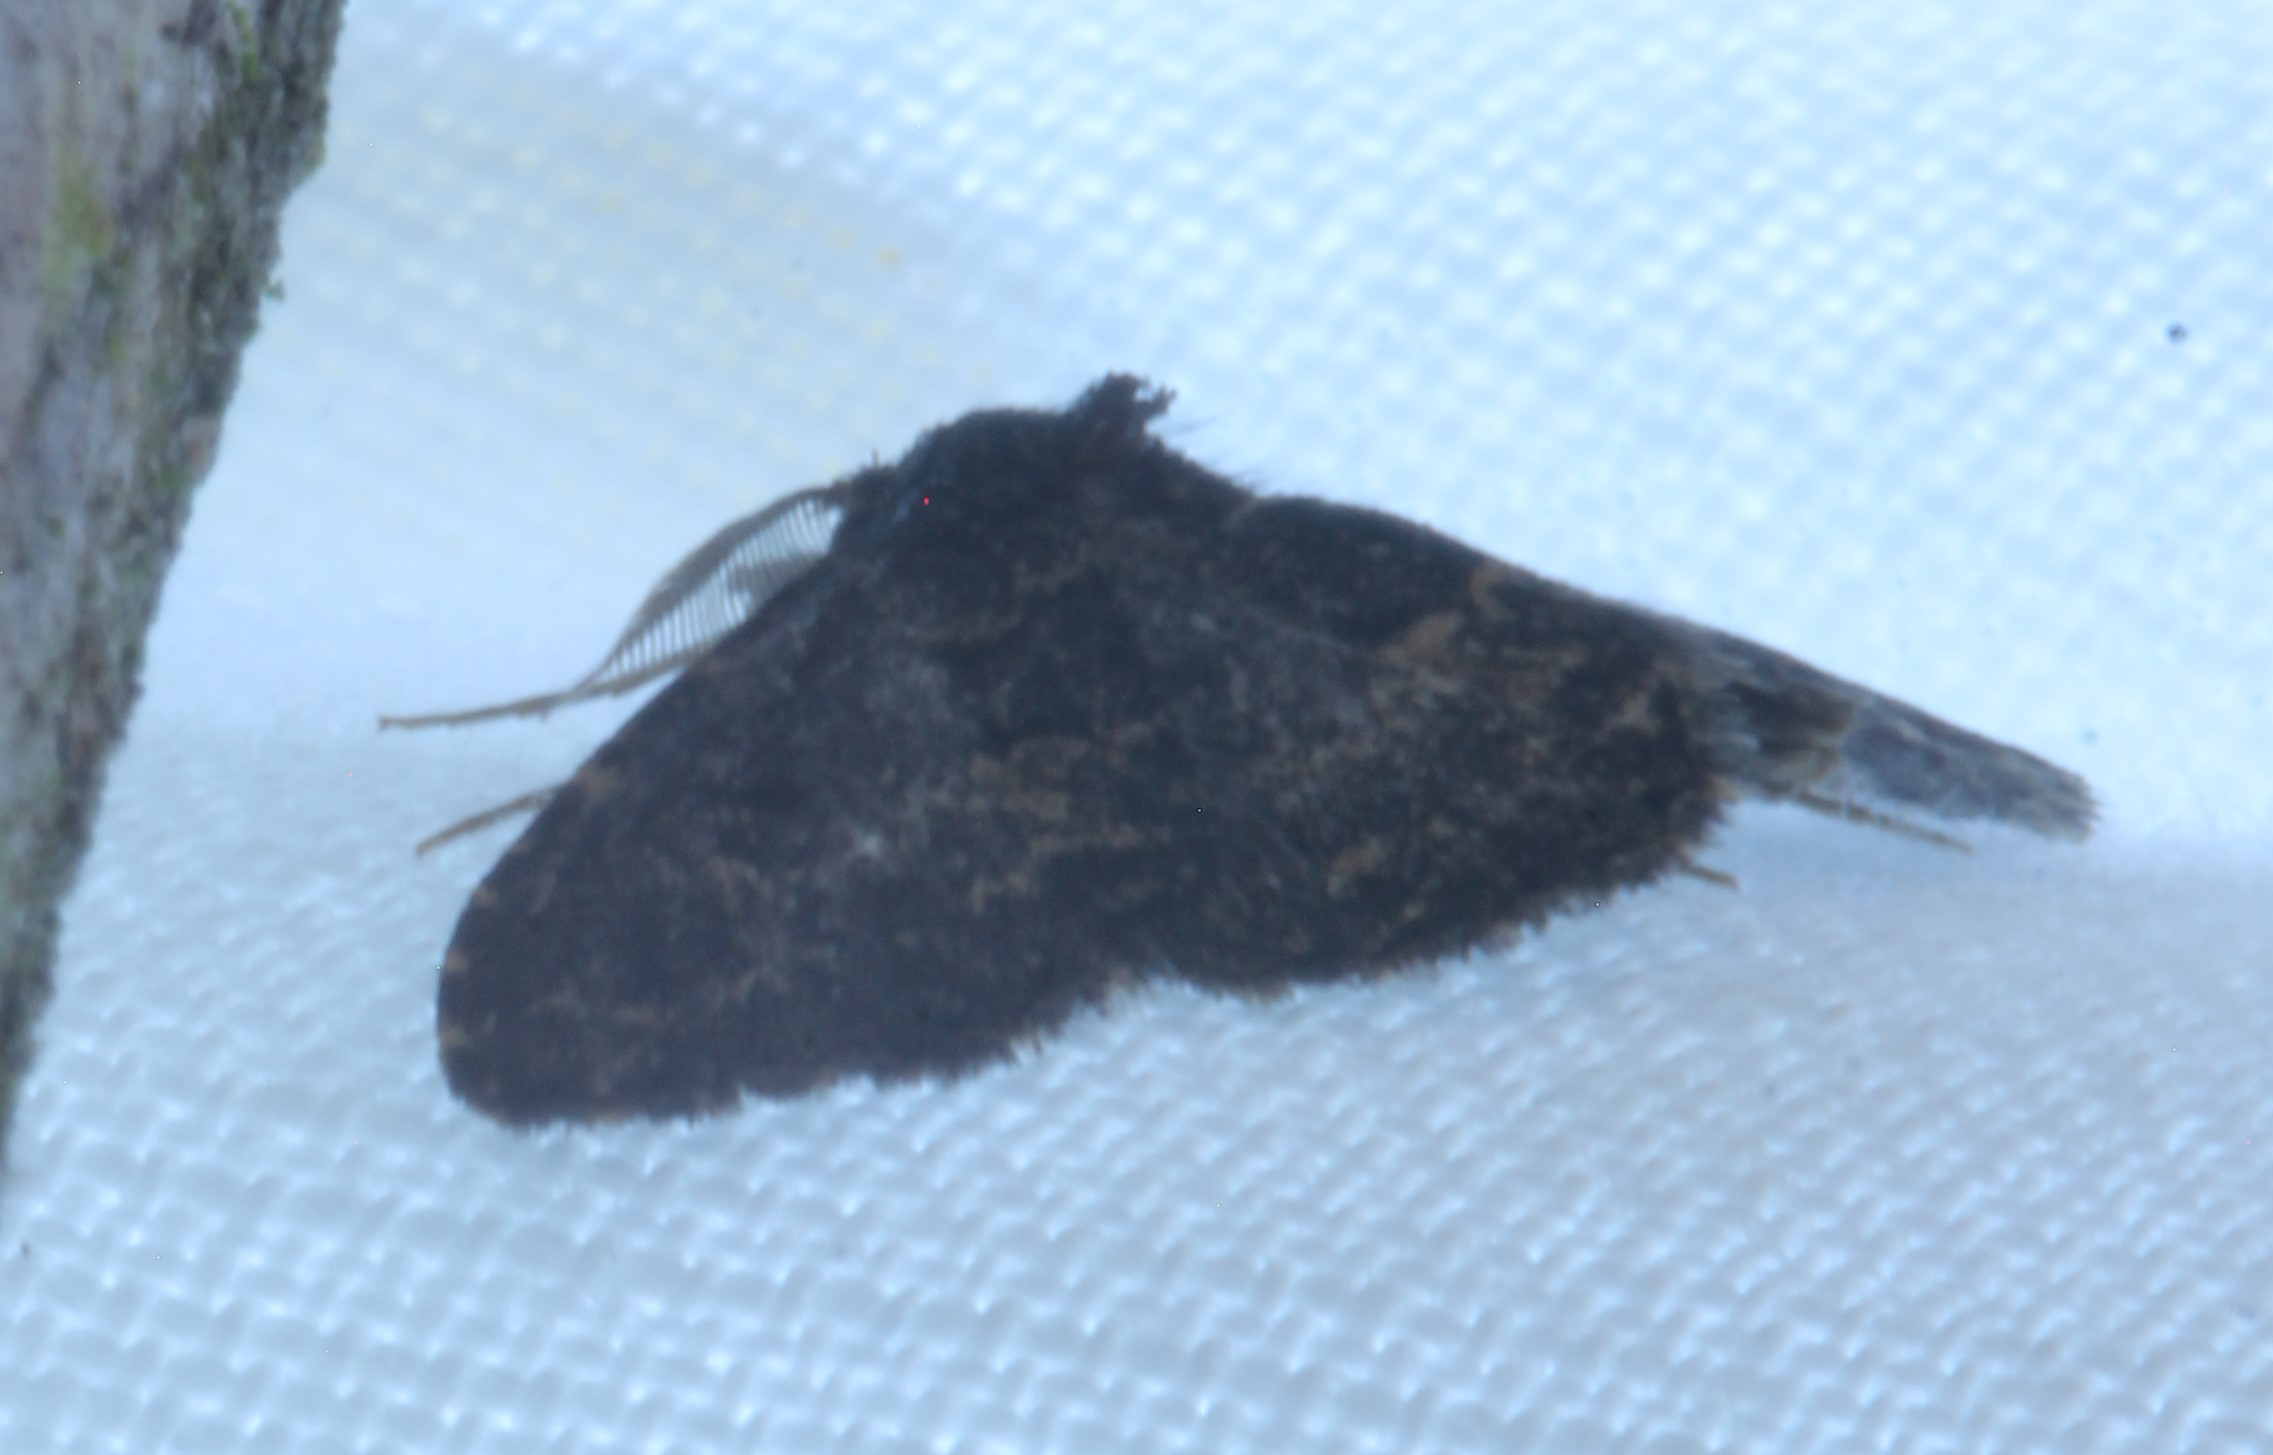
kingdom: Animalia
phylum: Arthropoda
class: Insecta
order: Lepidoptera
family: Erebidae
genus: Parascotia
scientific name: Parascotia fuliginaria
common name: Waved black
